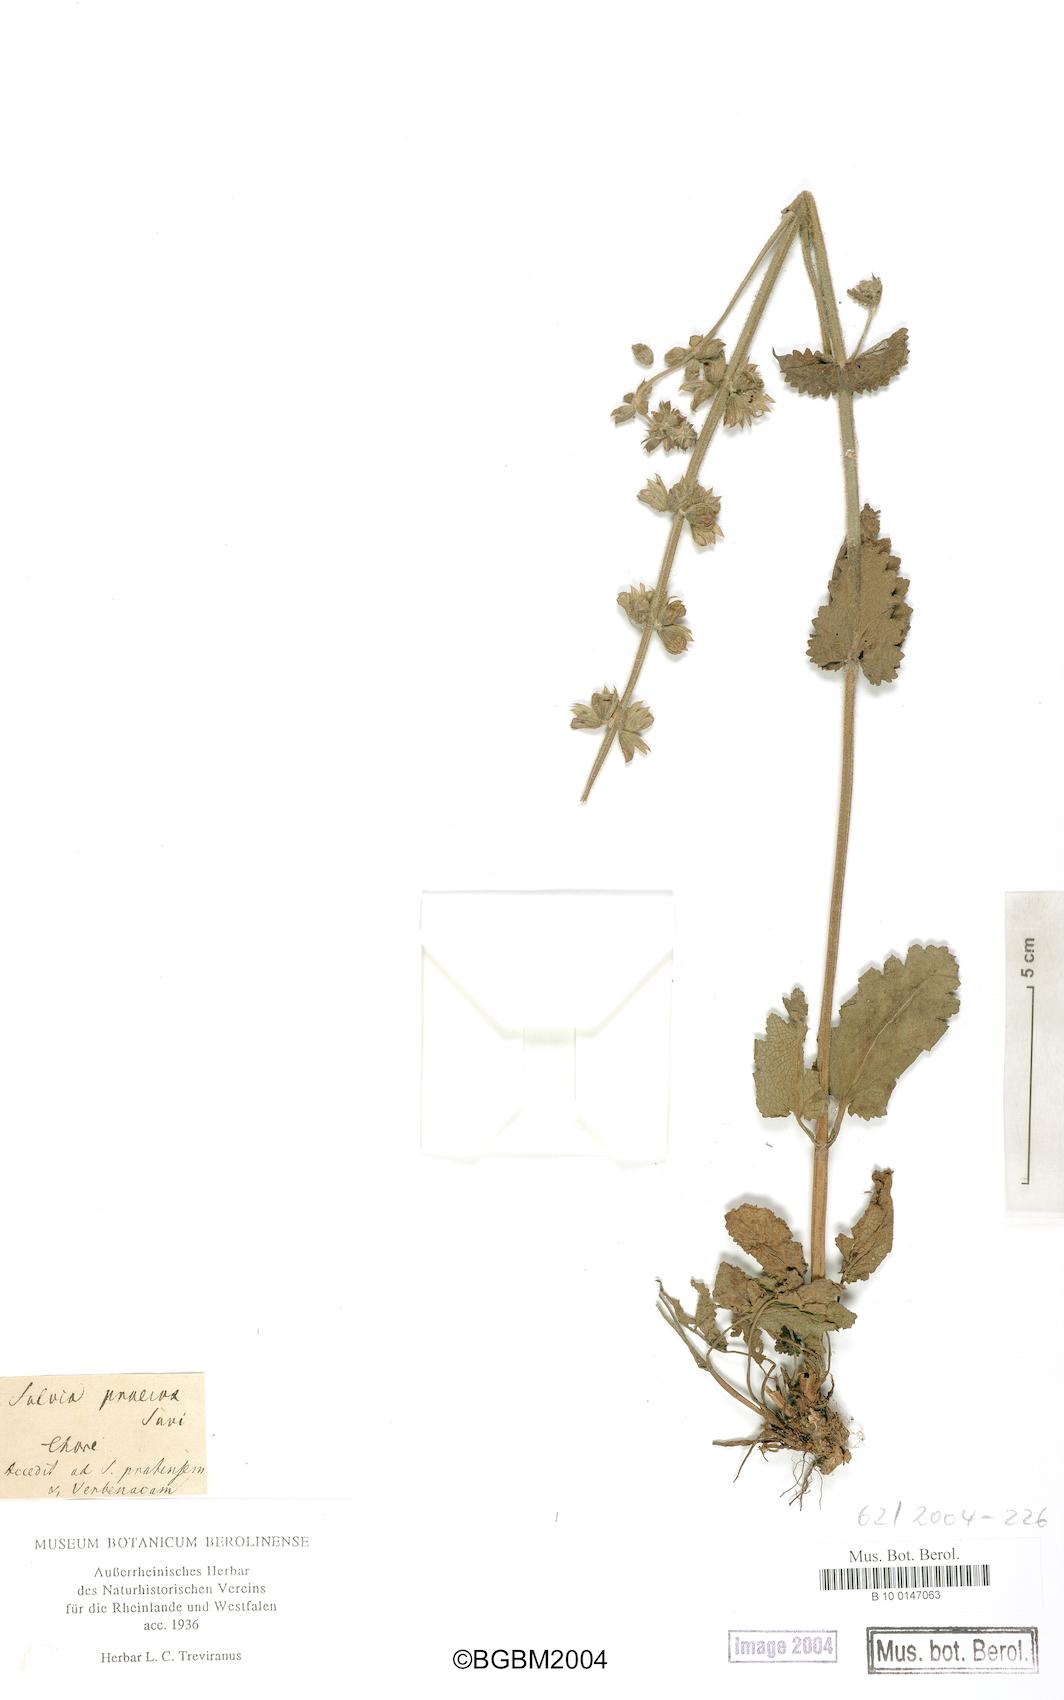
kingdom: Plantae
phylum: Tracheophyta
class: Magnoliopsida
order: Lamiales
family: Lamiaceae
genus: Salvia
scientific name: Salvia verbenaca
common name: Wild clary
